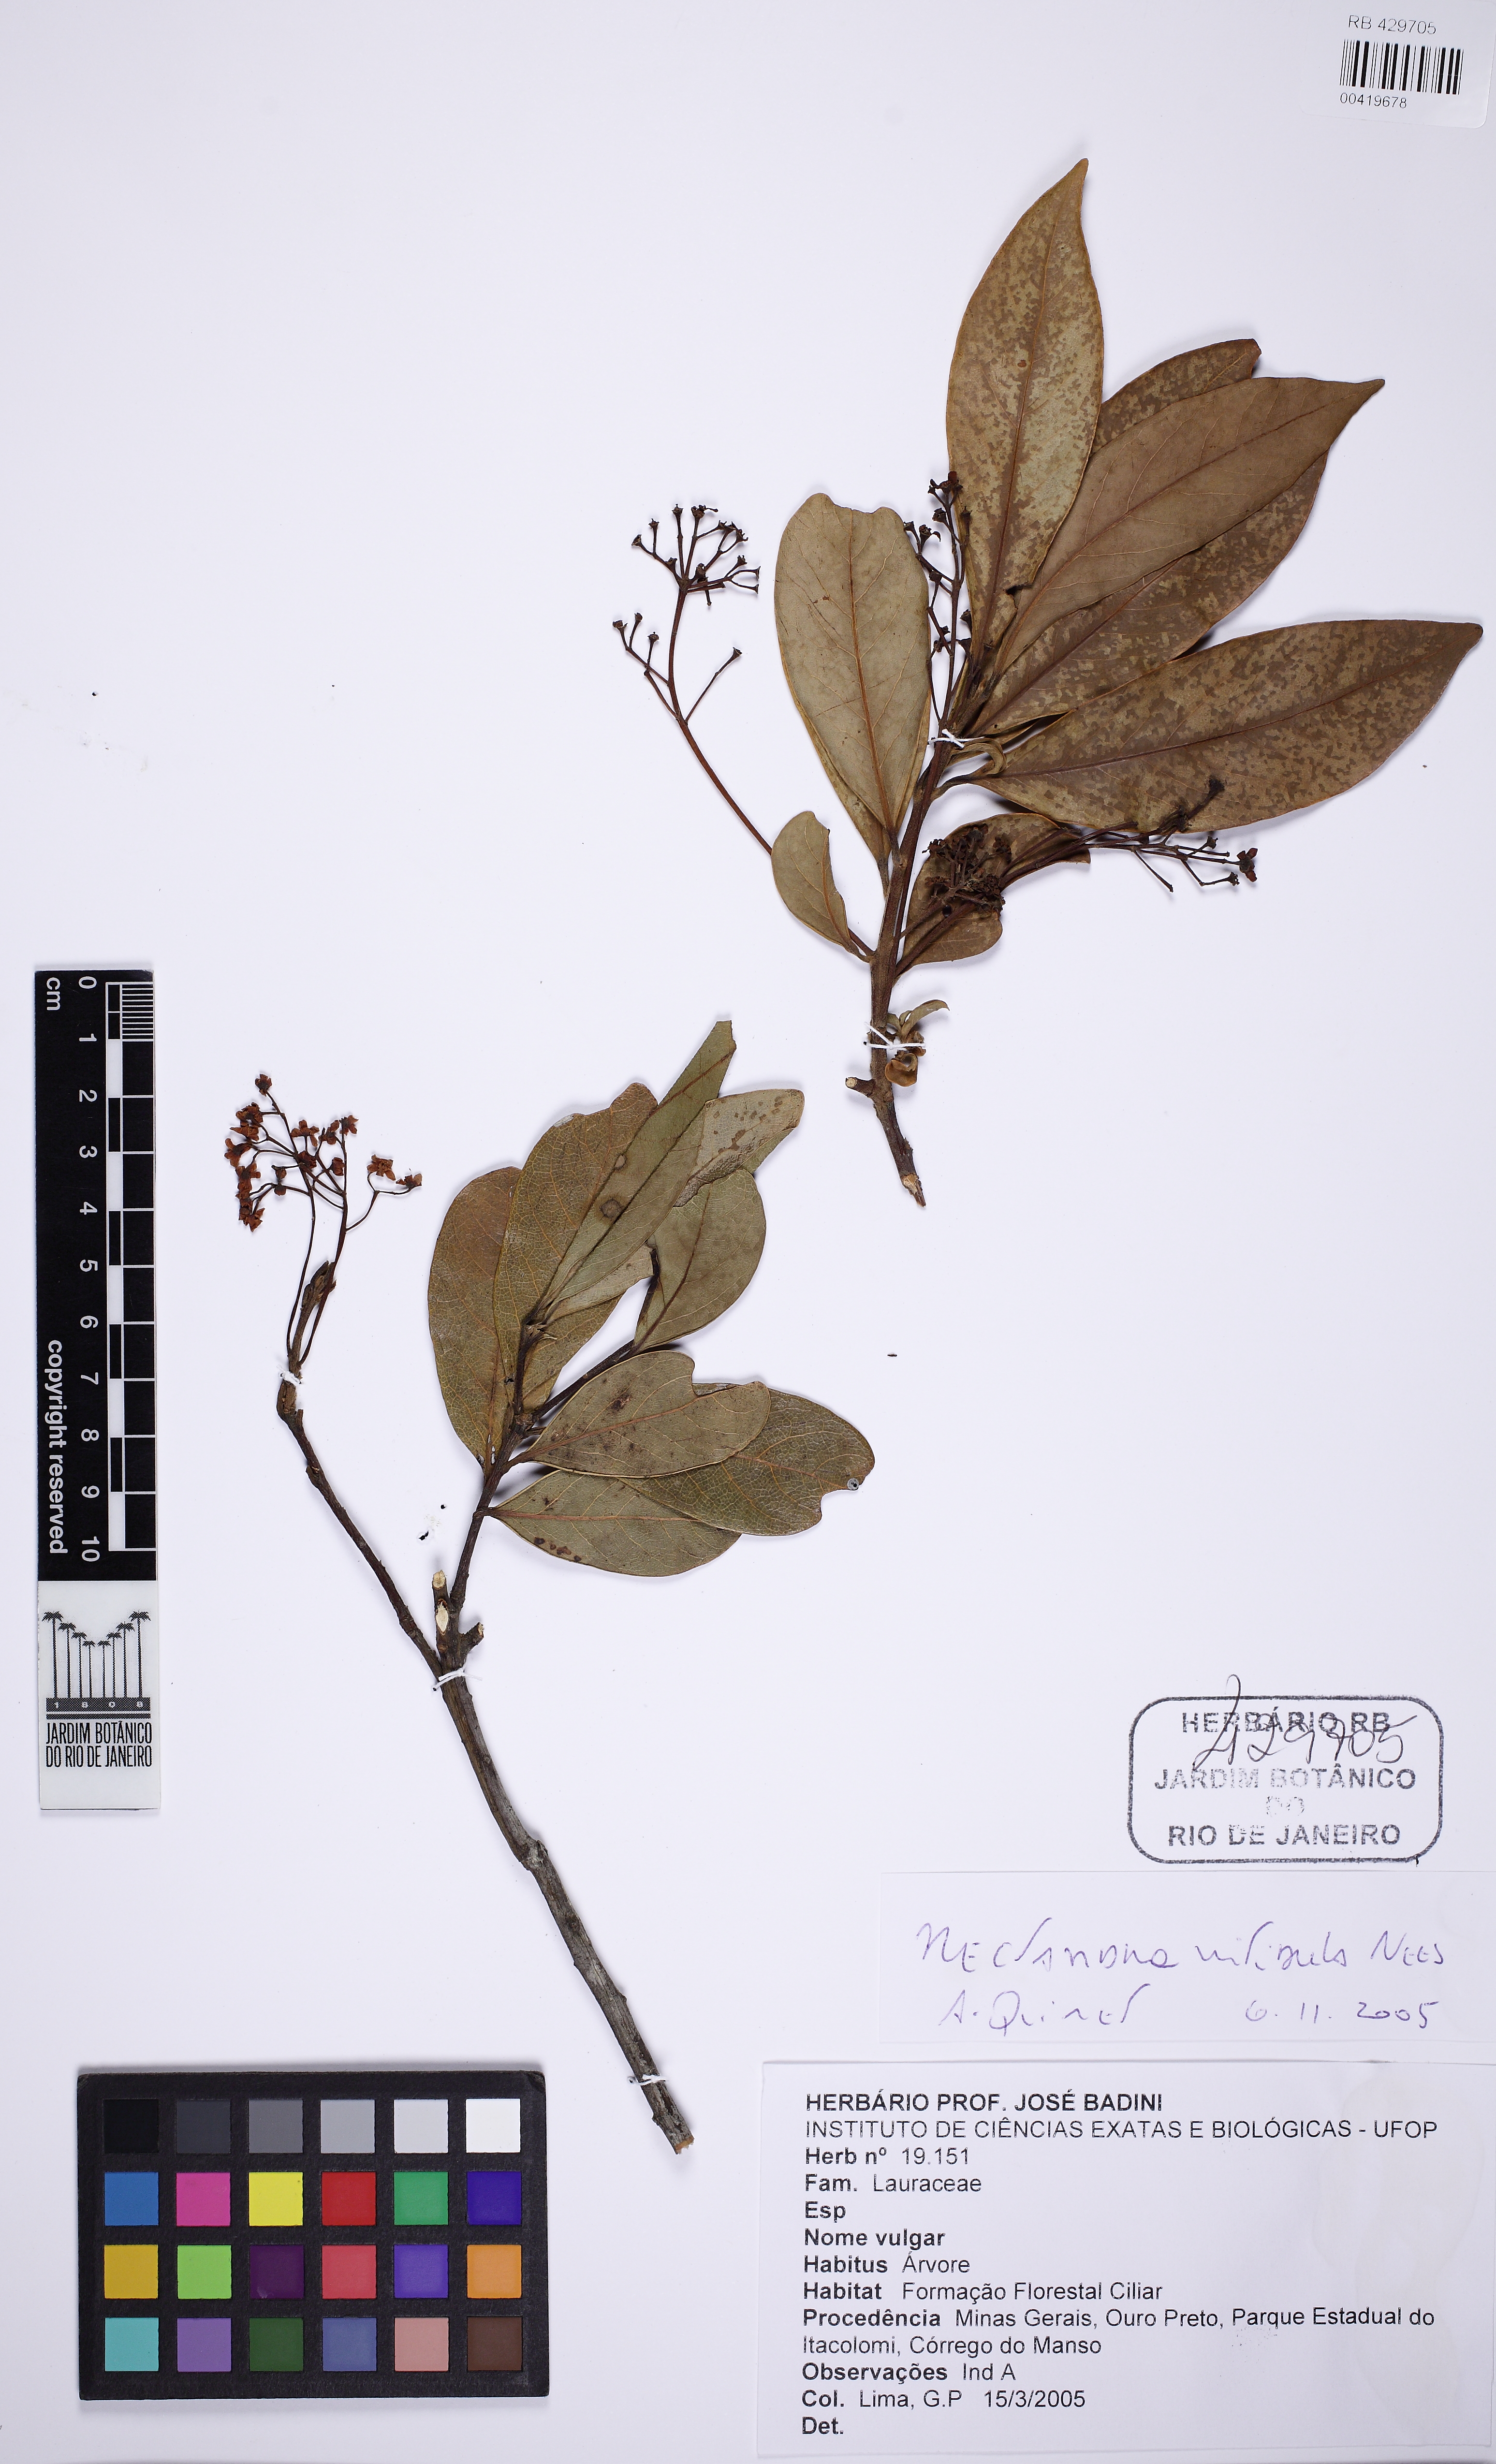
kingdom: Plantae
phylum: Tracheophyta
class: Magnoliopsida
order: Laurales
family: Lauraceae
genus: Nectandra
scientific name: Nectandra nitidula
